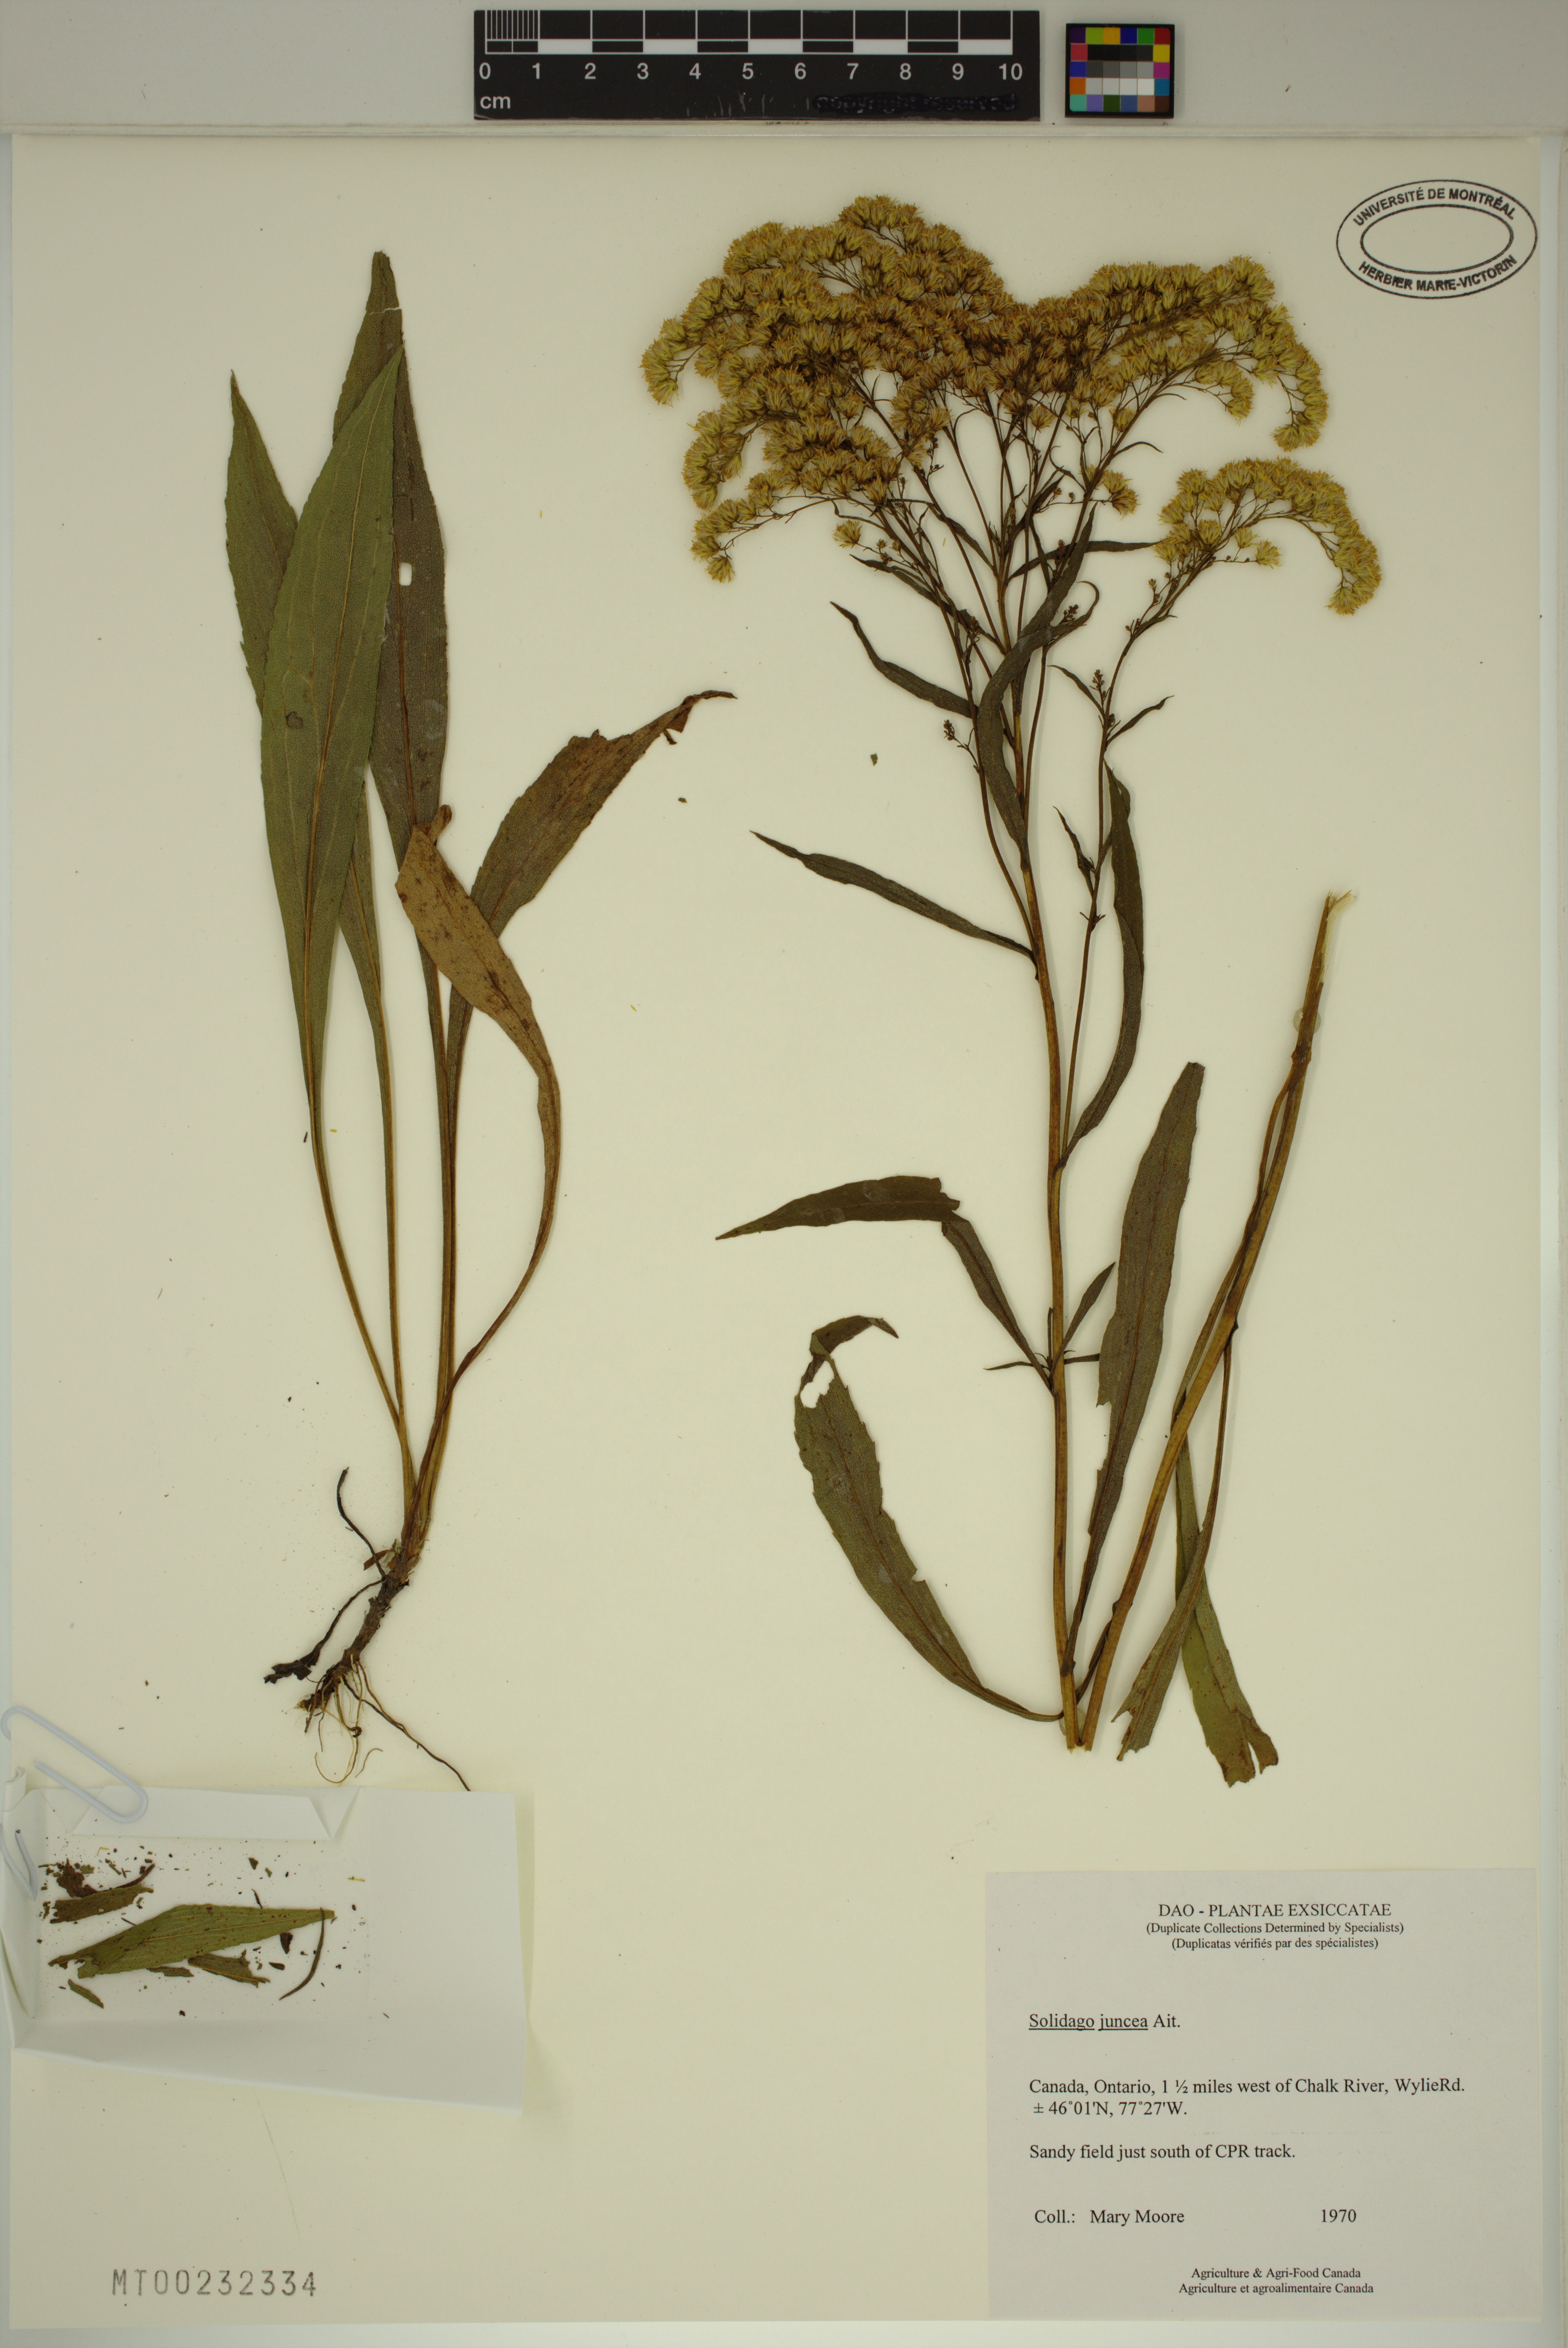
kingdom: Plantae
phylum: Tracheophyta
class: Magnoliopsida
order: Asterales
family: Asteraceae
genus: Solidago
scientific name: Solidago juncea
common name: Early goldenrod
